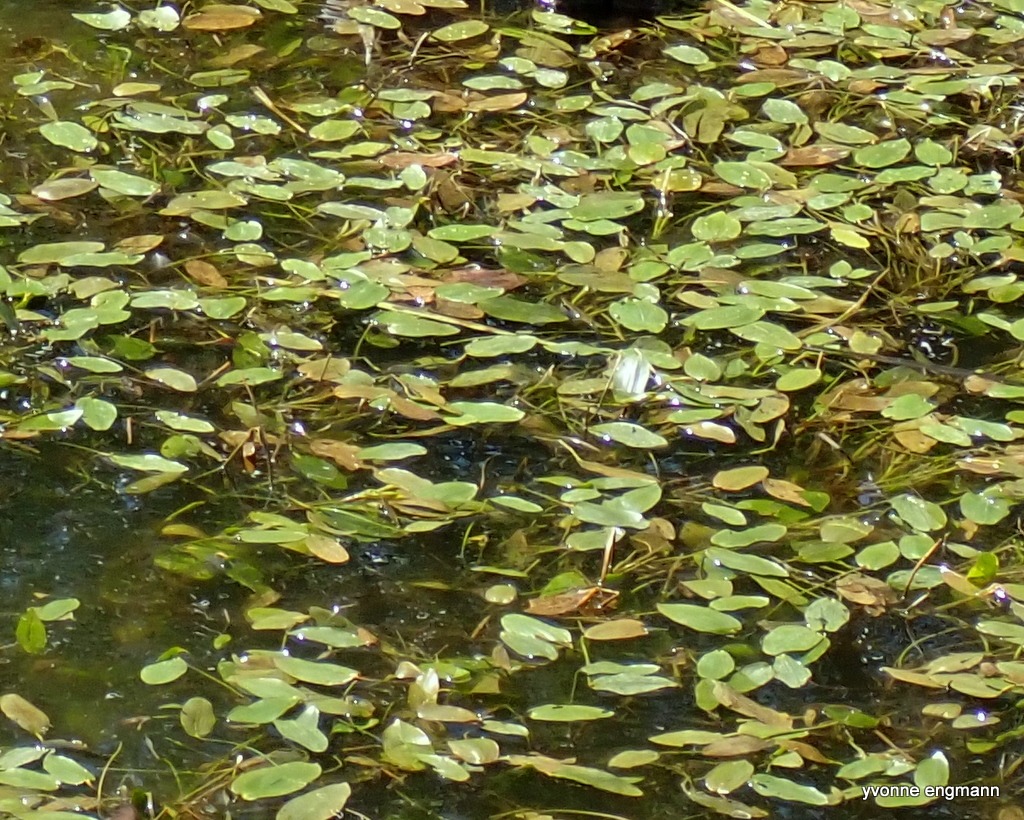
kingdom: Plantae
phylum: Tracheophyta
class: Liliopsida
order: Alismatales
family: Potamogetonaceae
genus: Potamogeton
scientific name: Potamogeton natans
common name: Svømmende vandaks
